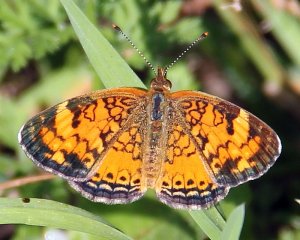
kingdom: Animalia
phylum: Arthropoda
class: Insecta
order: Lepidoptera
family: Nymphalidae
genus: Phyciodes
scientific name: Phyciodes tharos
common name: Northern Crescent
